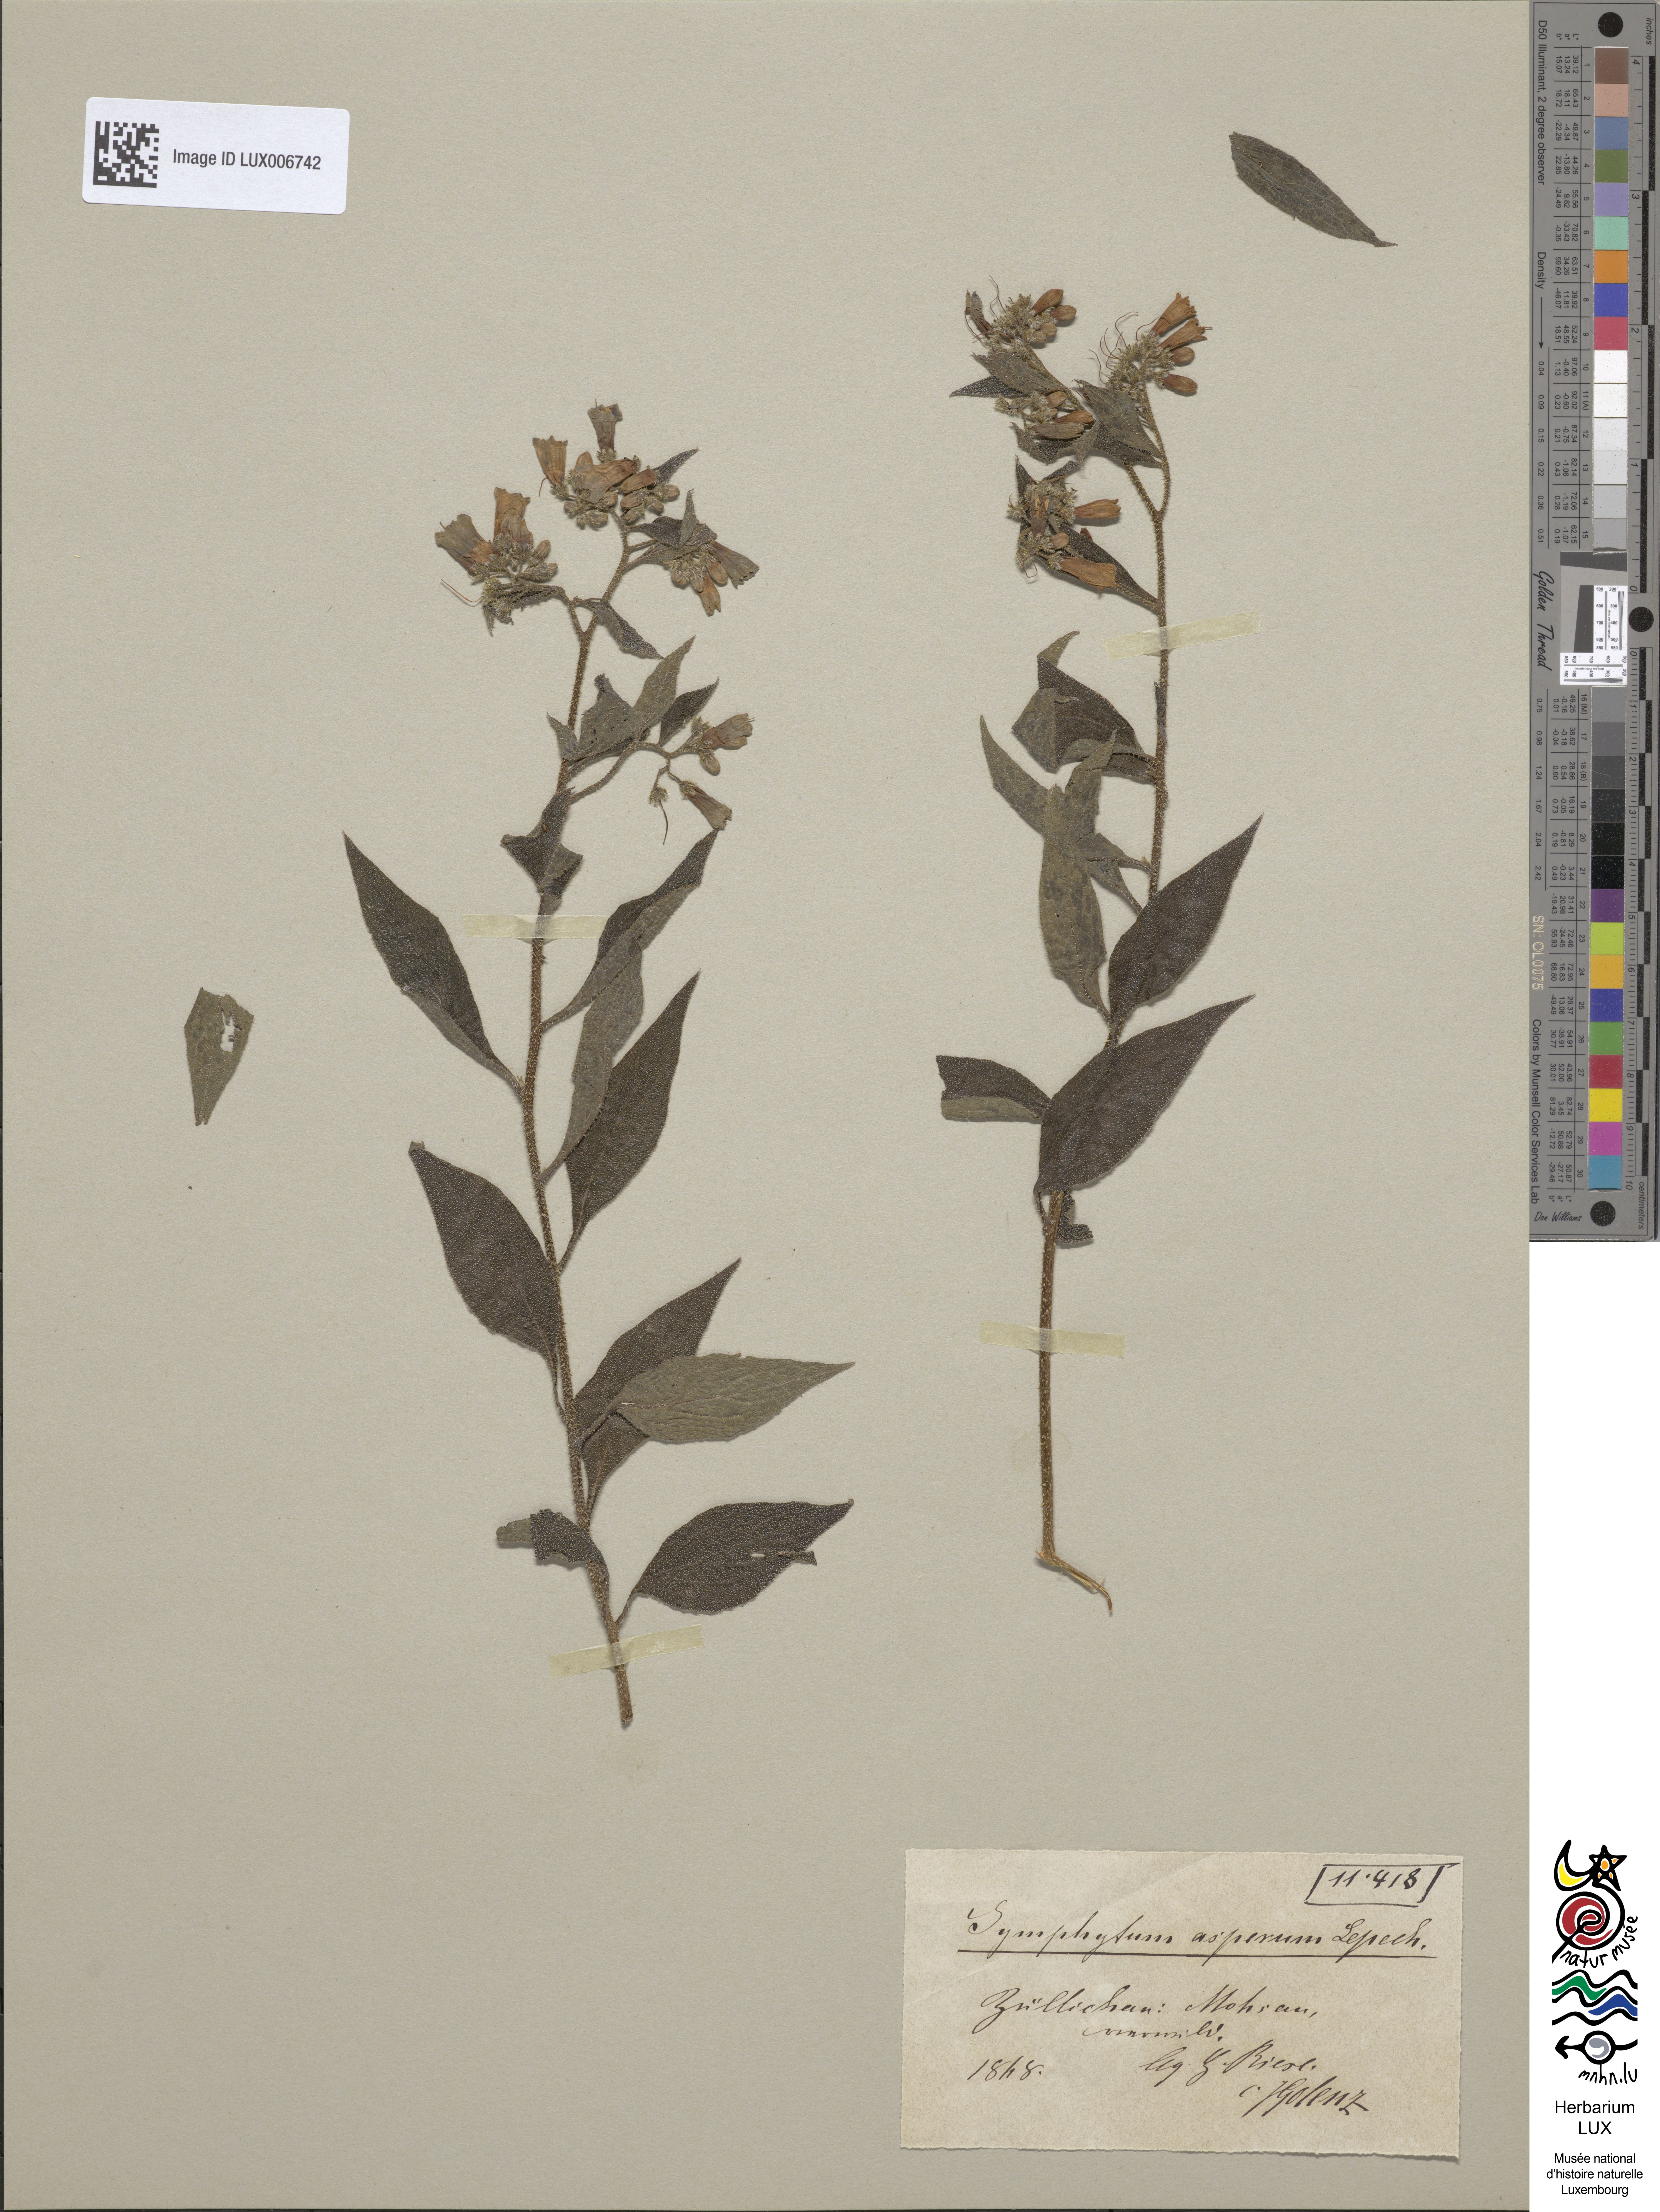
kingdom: Plantae
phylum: Tracheophyta
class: Magnoliopsida
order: Boraginales
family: Boraginaceae
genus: Symphytum
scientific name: Symphytum asperum
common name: Prickly comfrey
